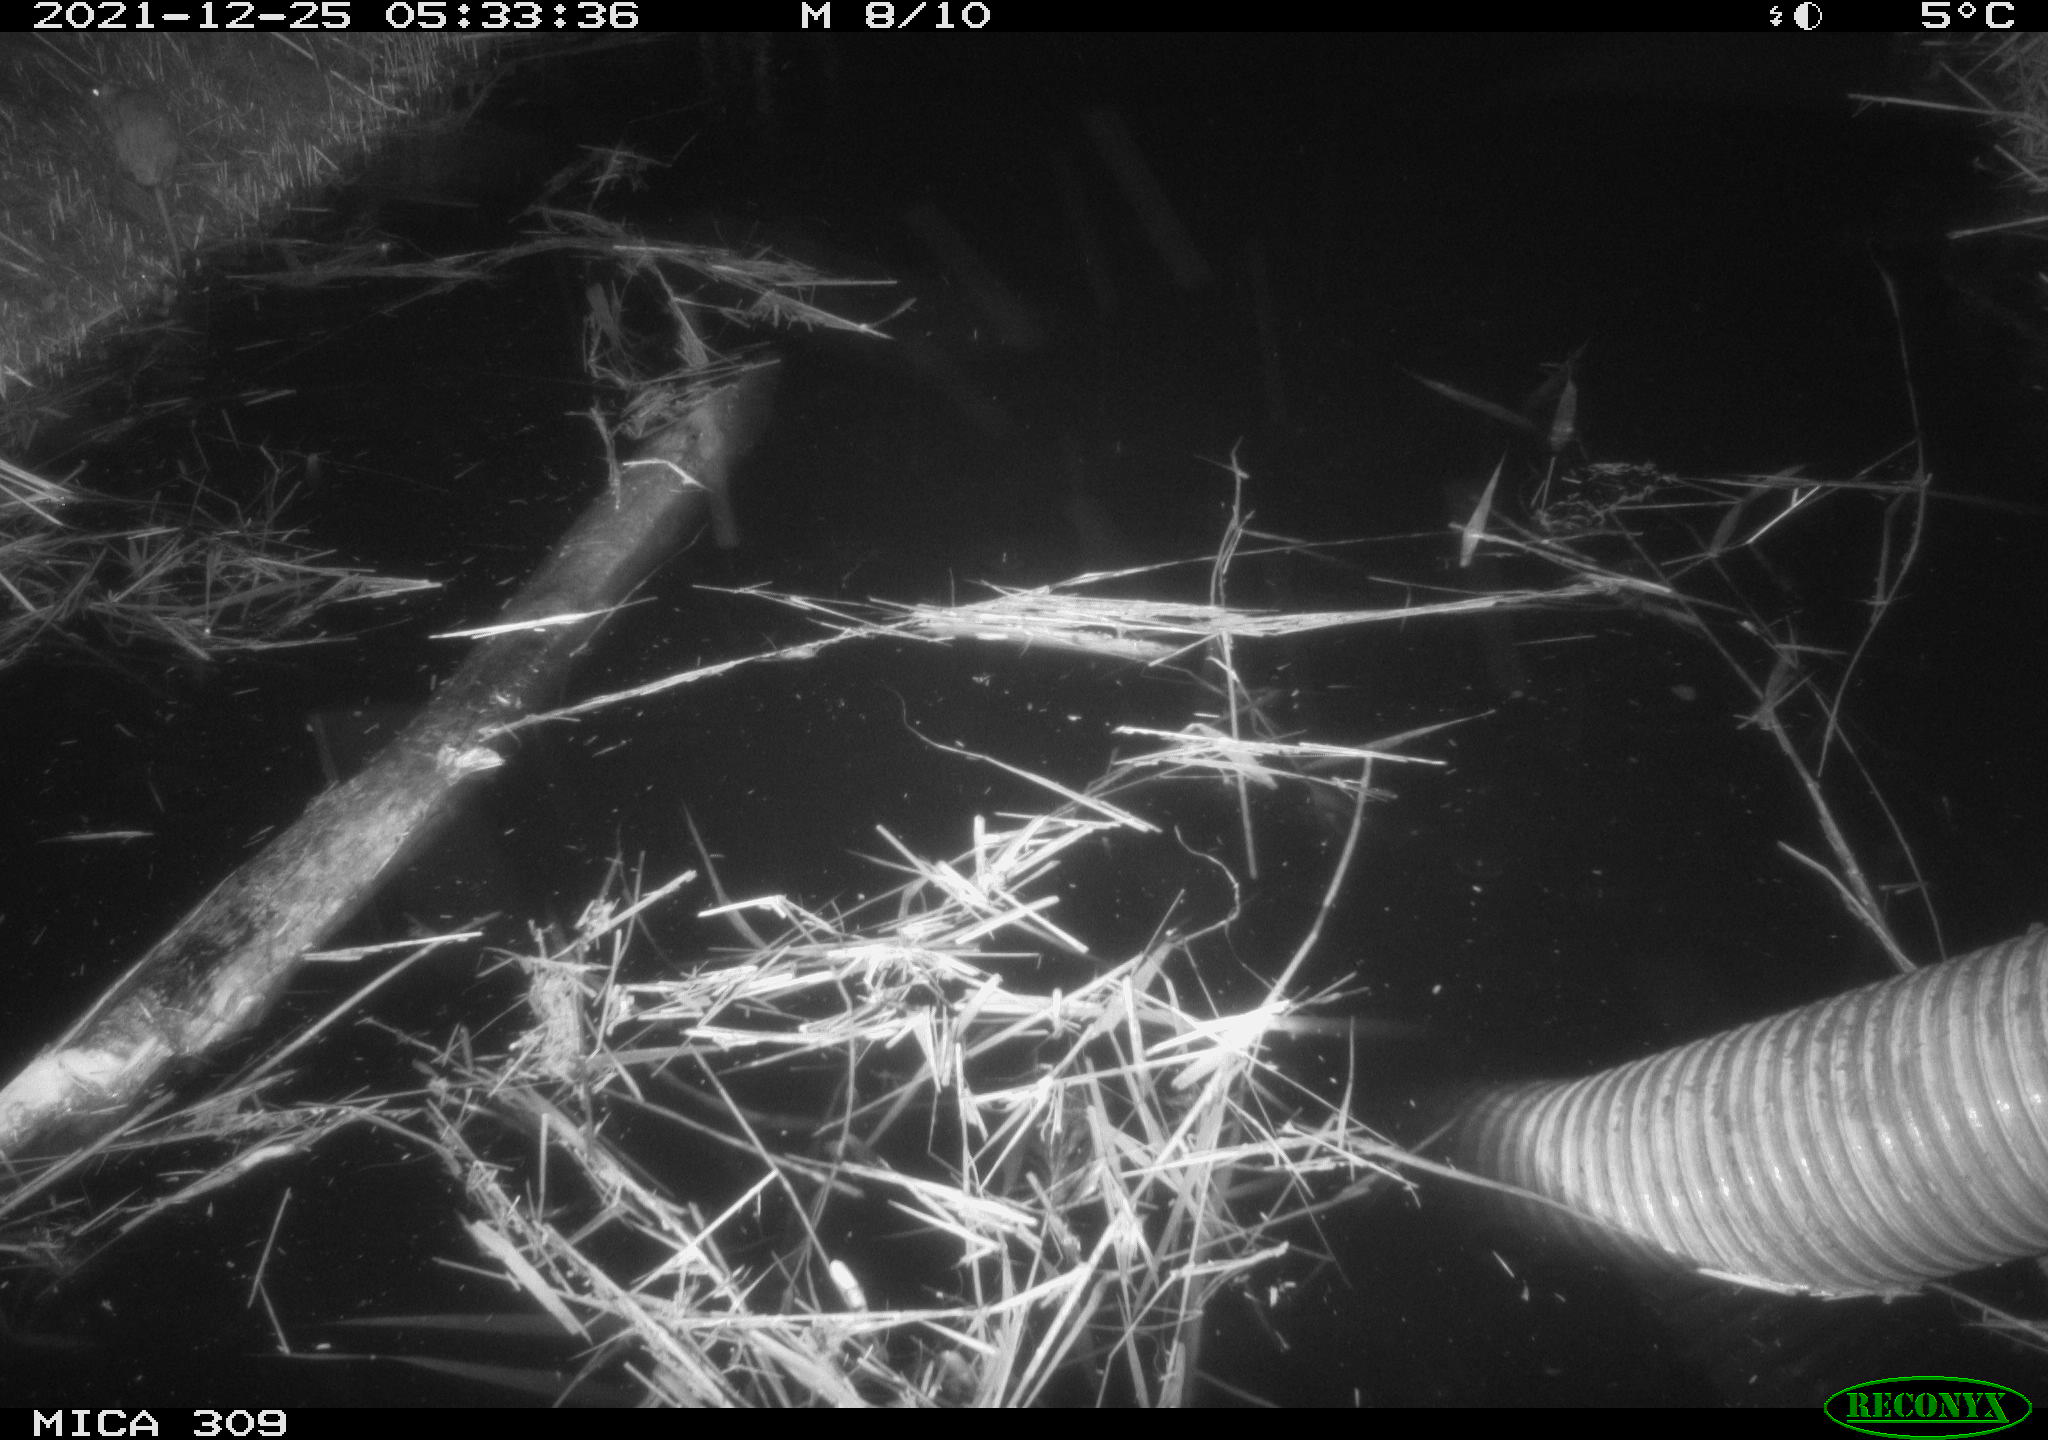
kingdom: Animalia
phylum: Chordata
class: Mammalia
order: Rodentia
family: Muridae
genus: Rattus
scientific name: Rattus norvegicus
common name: Brown rat
